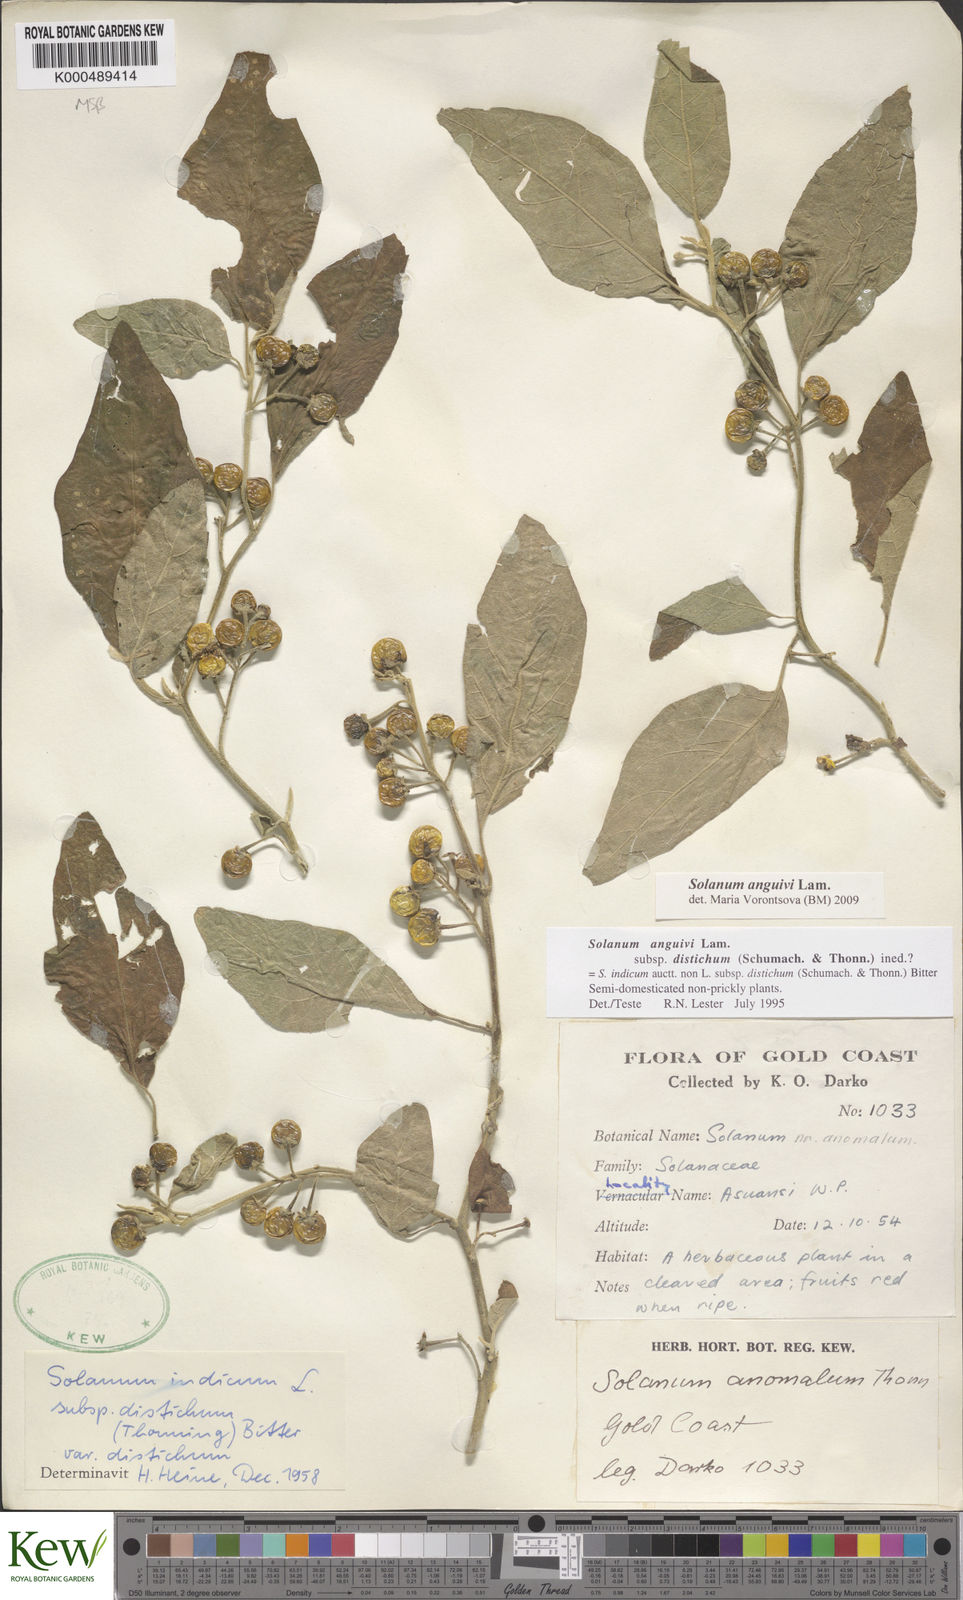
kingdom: Plantae
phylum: Tracheophyta
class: Magnoliopsida
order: Solanales
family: Solanaceae
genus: Solanum
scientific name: Solanum anguivi
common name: Forest bitterberry
